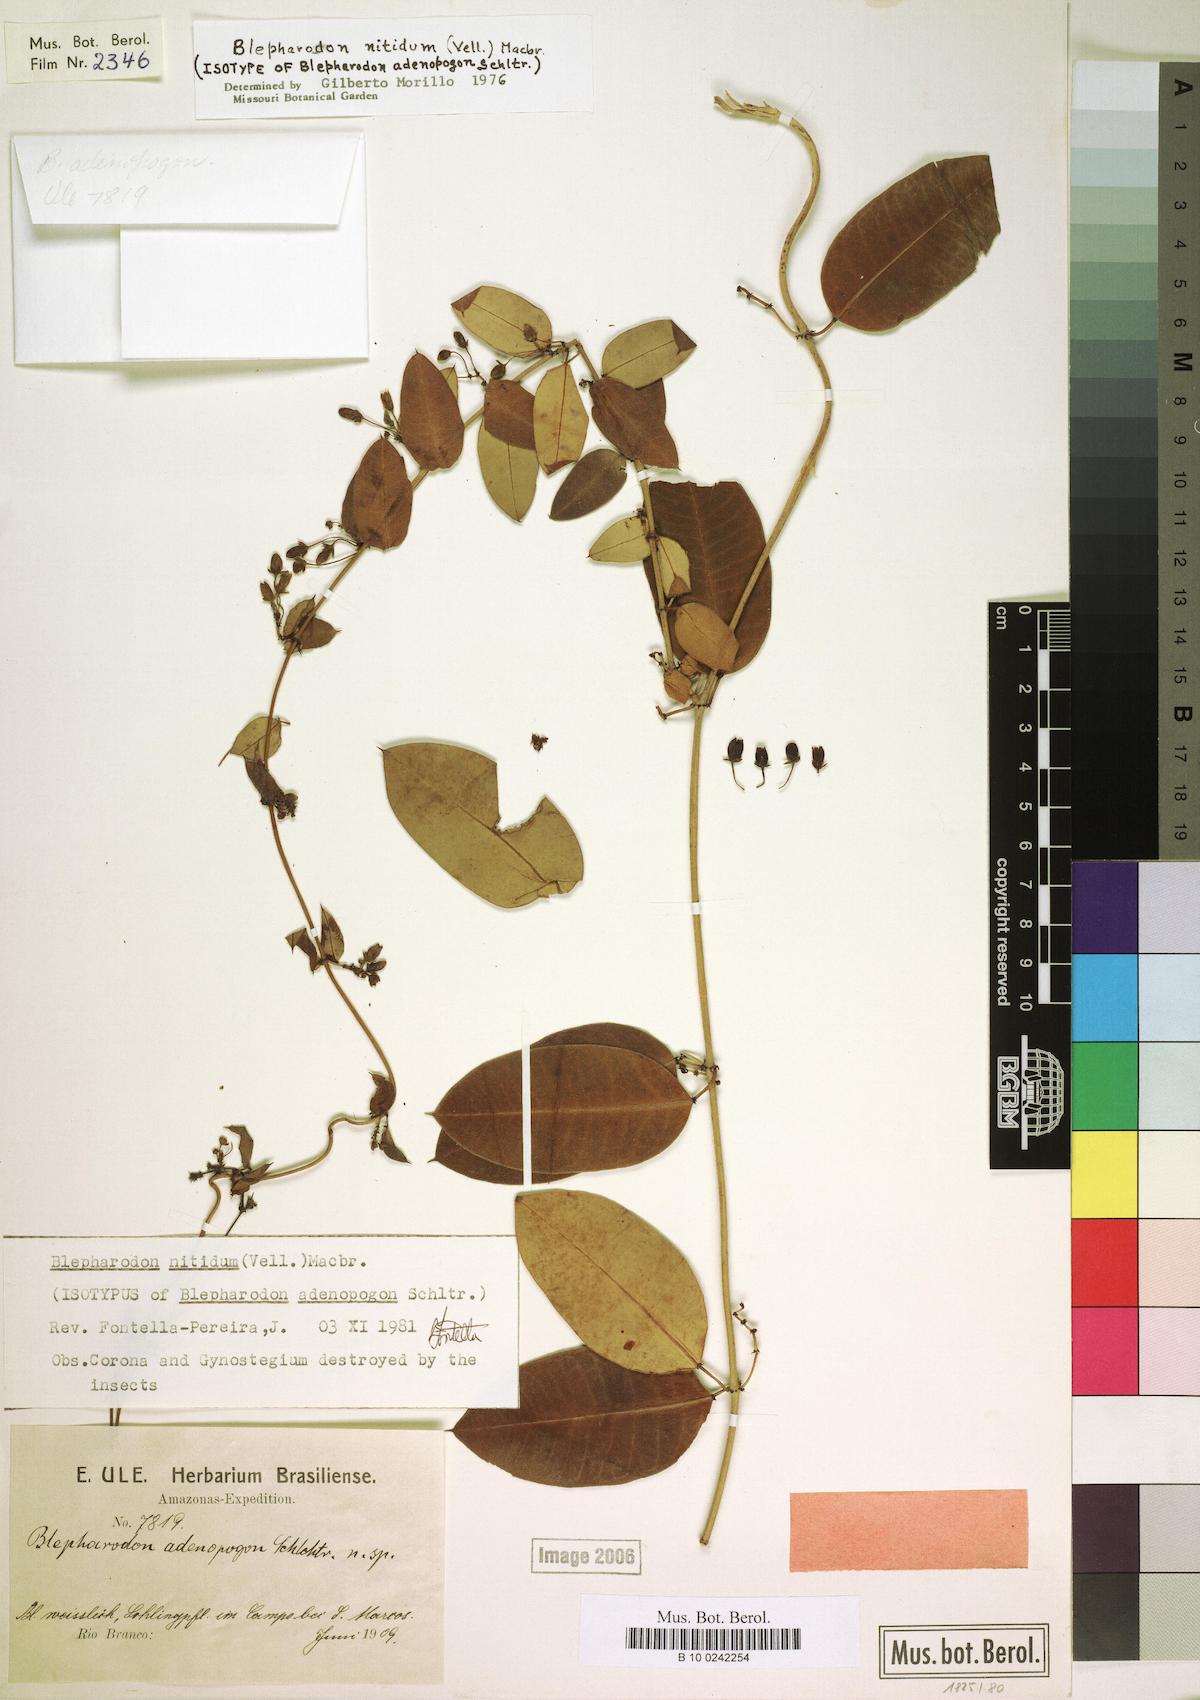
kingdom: Plantae
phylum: Tracheophyta
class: Magnoliopsida
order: Gentianales
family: Apocynaceae
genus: Blepharodon
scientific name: Blepharodon pictum
